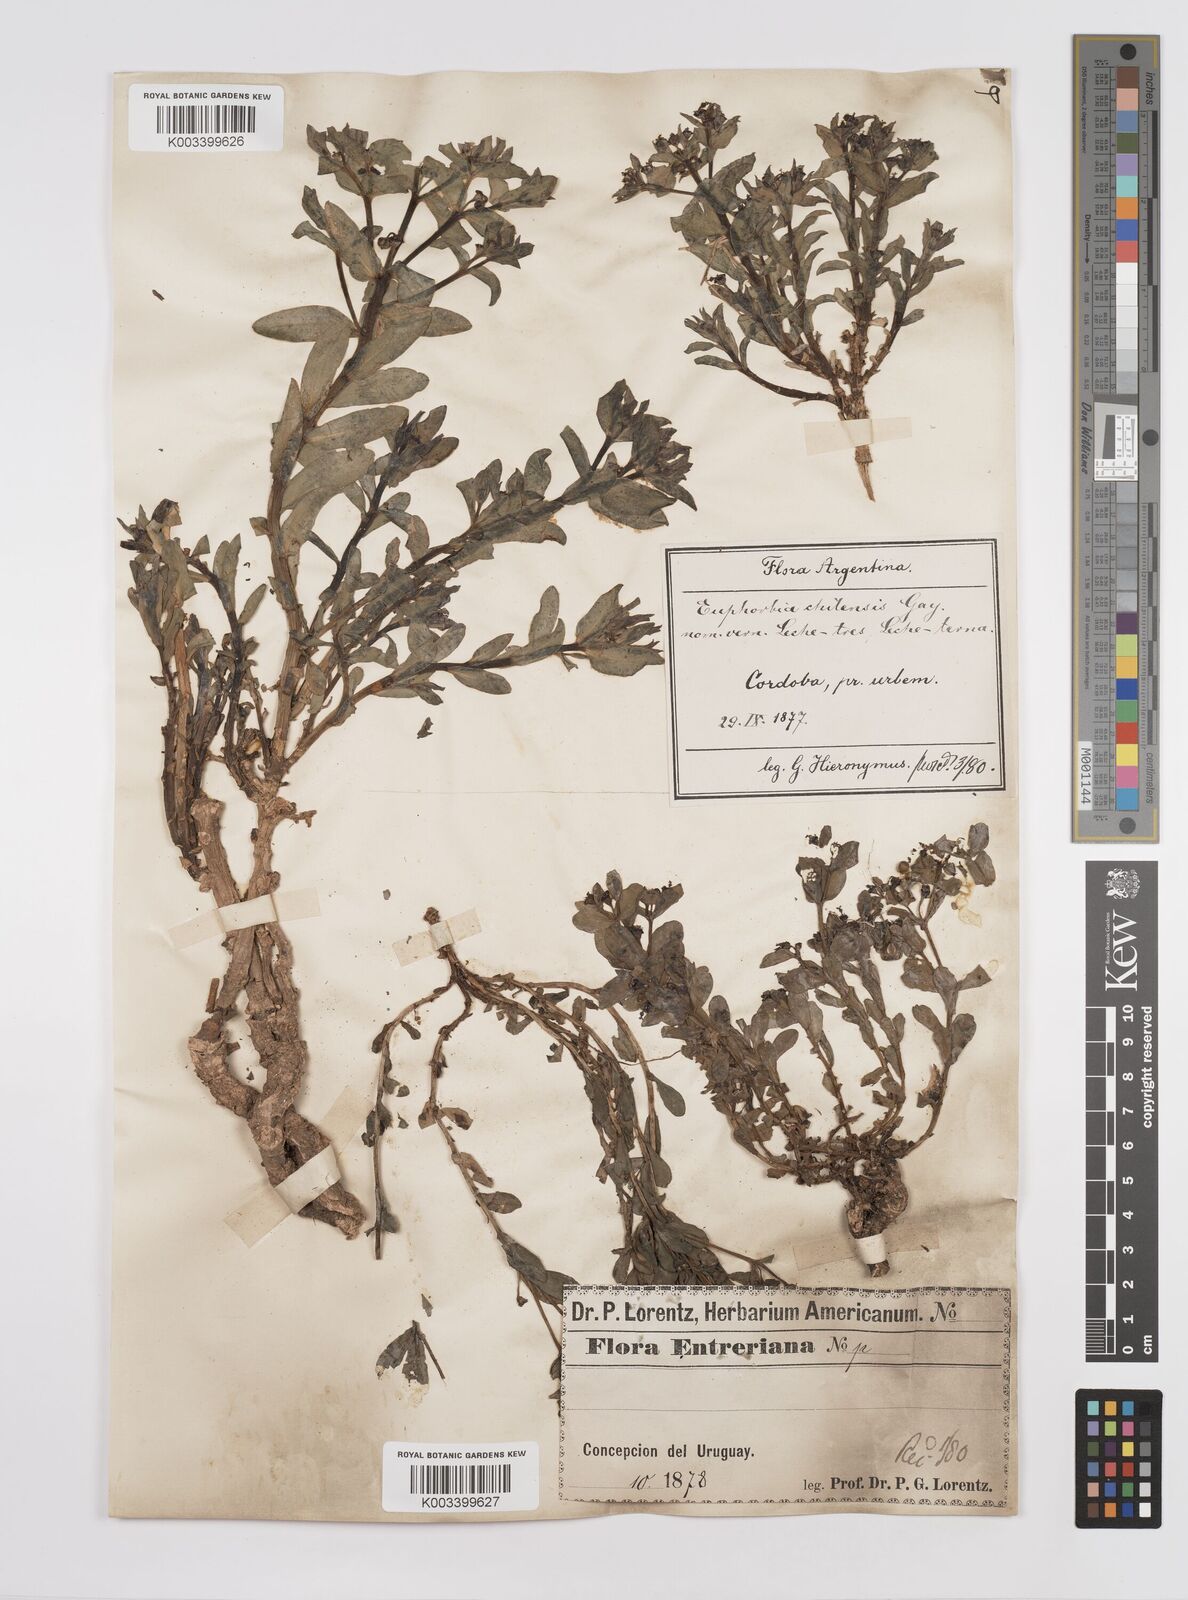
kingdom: Plantae
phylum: Tracheophyta
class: Magnoliopsida
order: Malpighiales
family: Euphorbiaceae
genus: Euphorbia
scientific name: Euphorbia portulacoides
